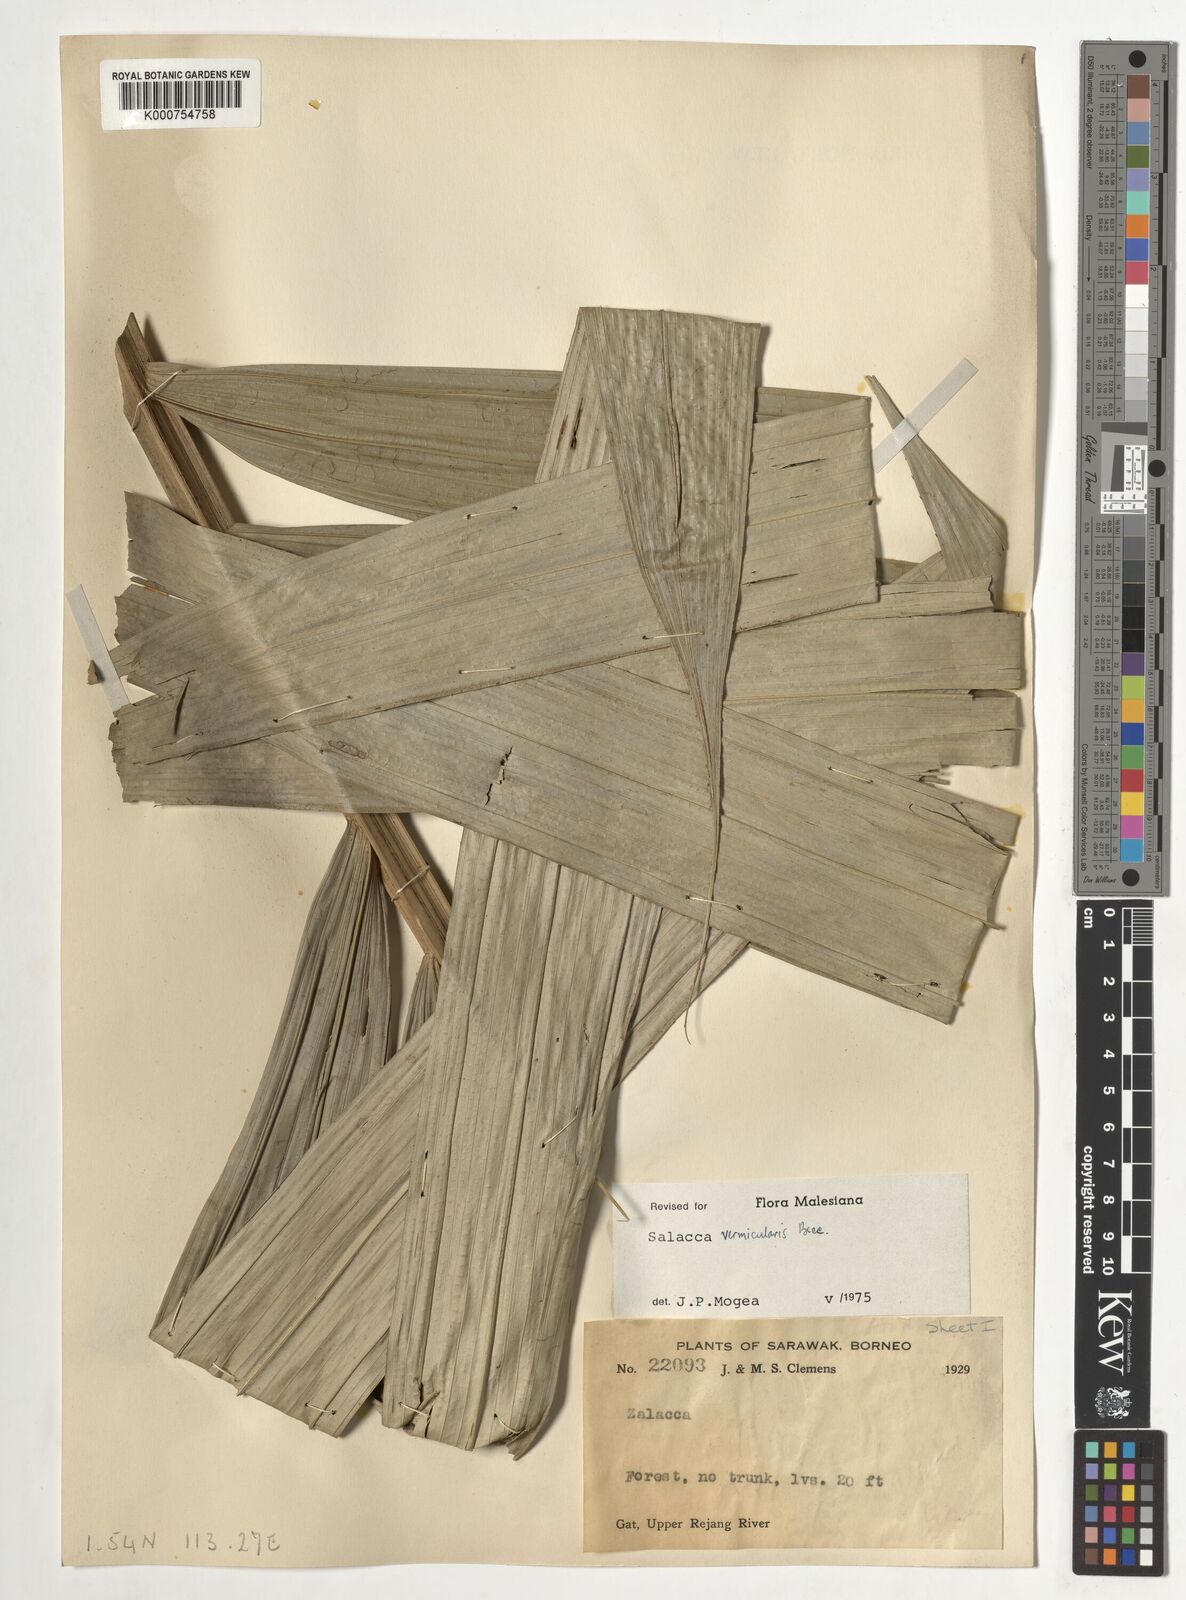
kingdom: Plantae
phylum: Tracheophyta
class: Liliopsida
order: Arecales
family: Arecaceae
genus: Salacca
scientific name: Salacca vermicularis
